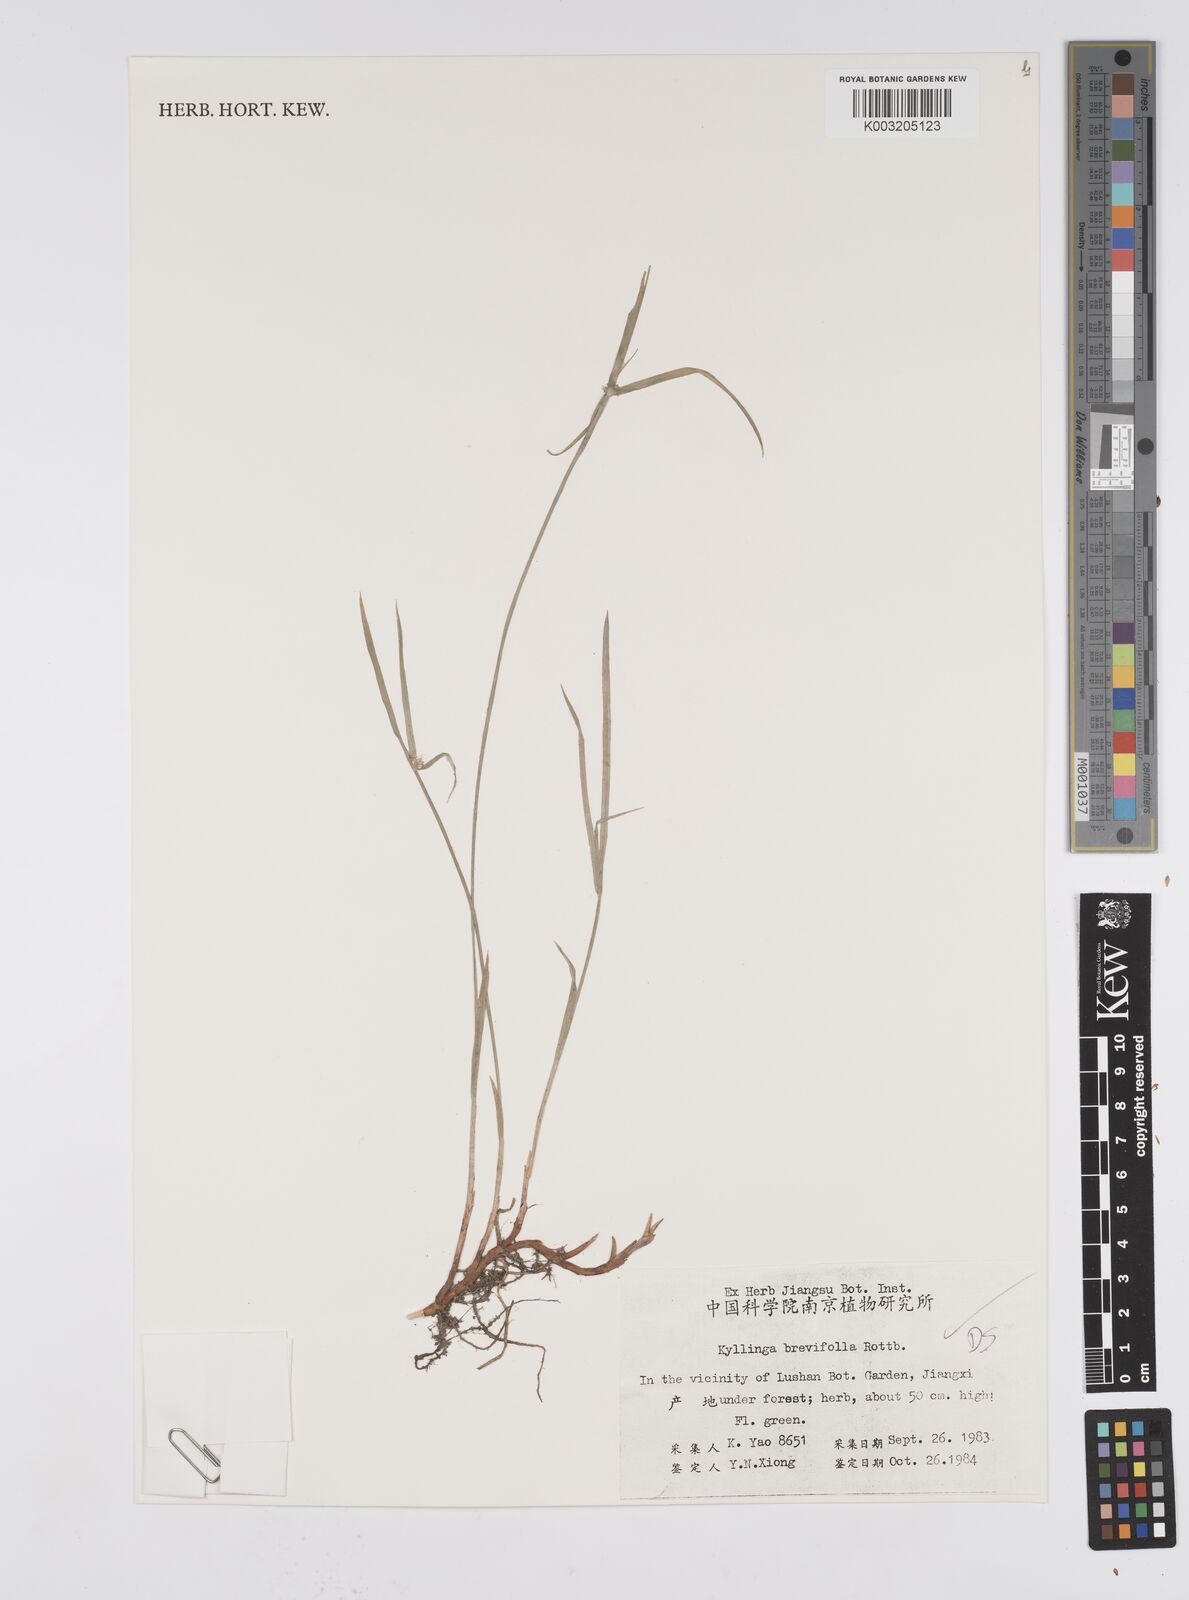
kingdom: Plantae
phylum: Tracheophyta
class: Liliopsida
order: Poales
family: Cyperaceae
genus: Cyperus
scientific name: Cyperus brevifolius
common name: Globe kyllinga
